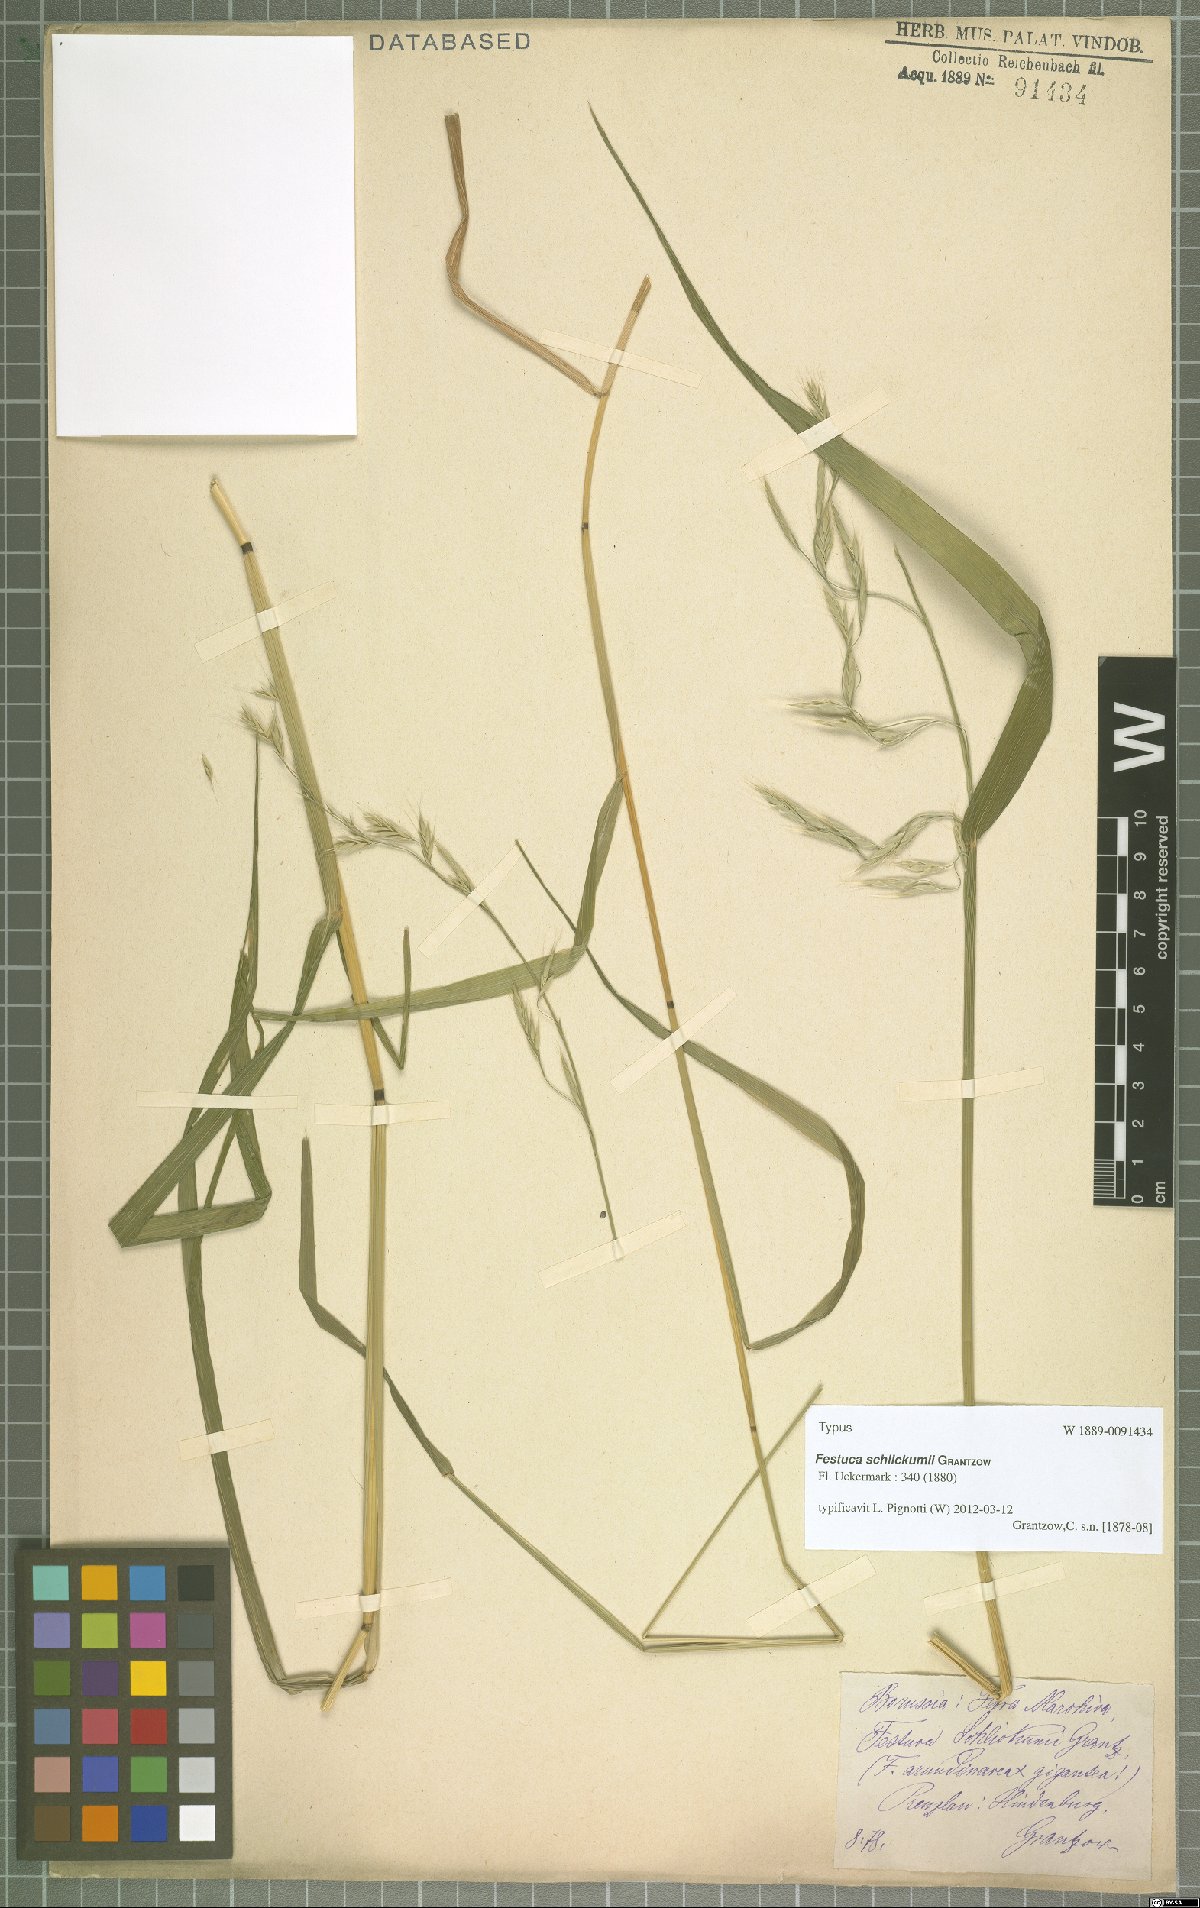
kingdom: Plantae
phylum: Tracheophyta
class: Liliopsida
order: Poales
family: Poaceae
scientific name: Poaceae
